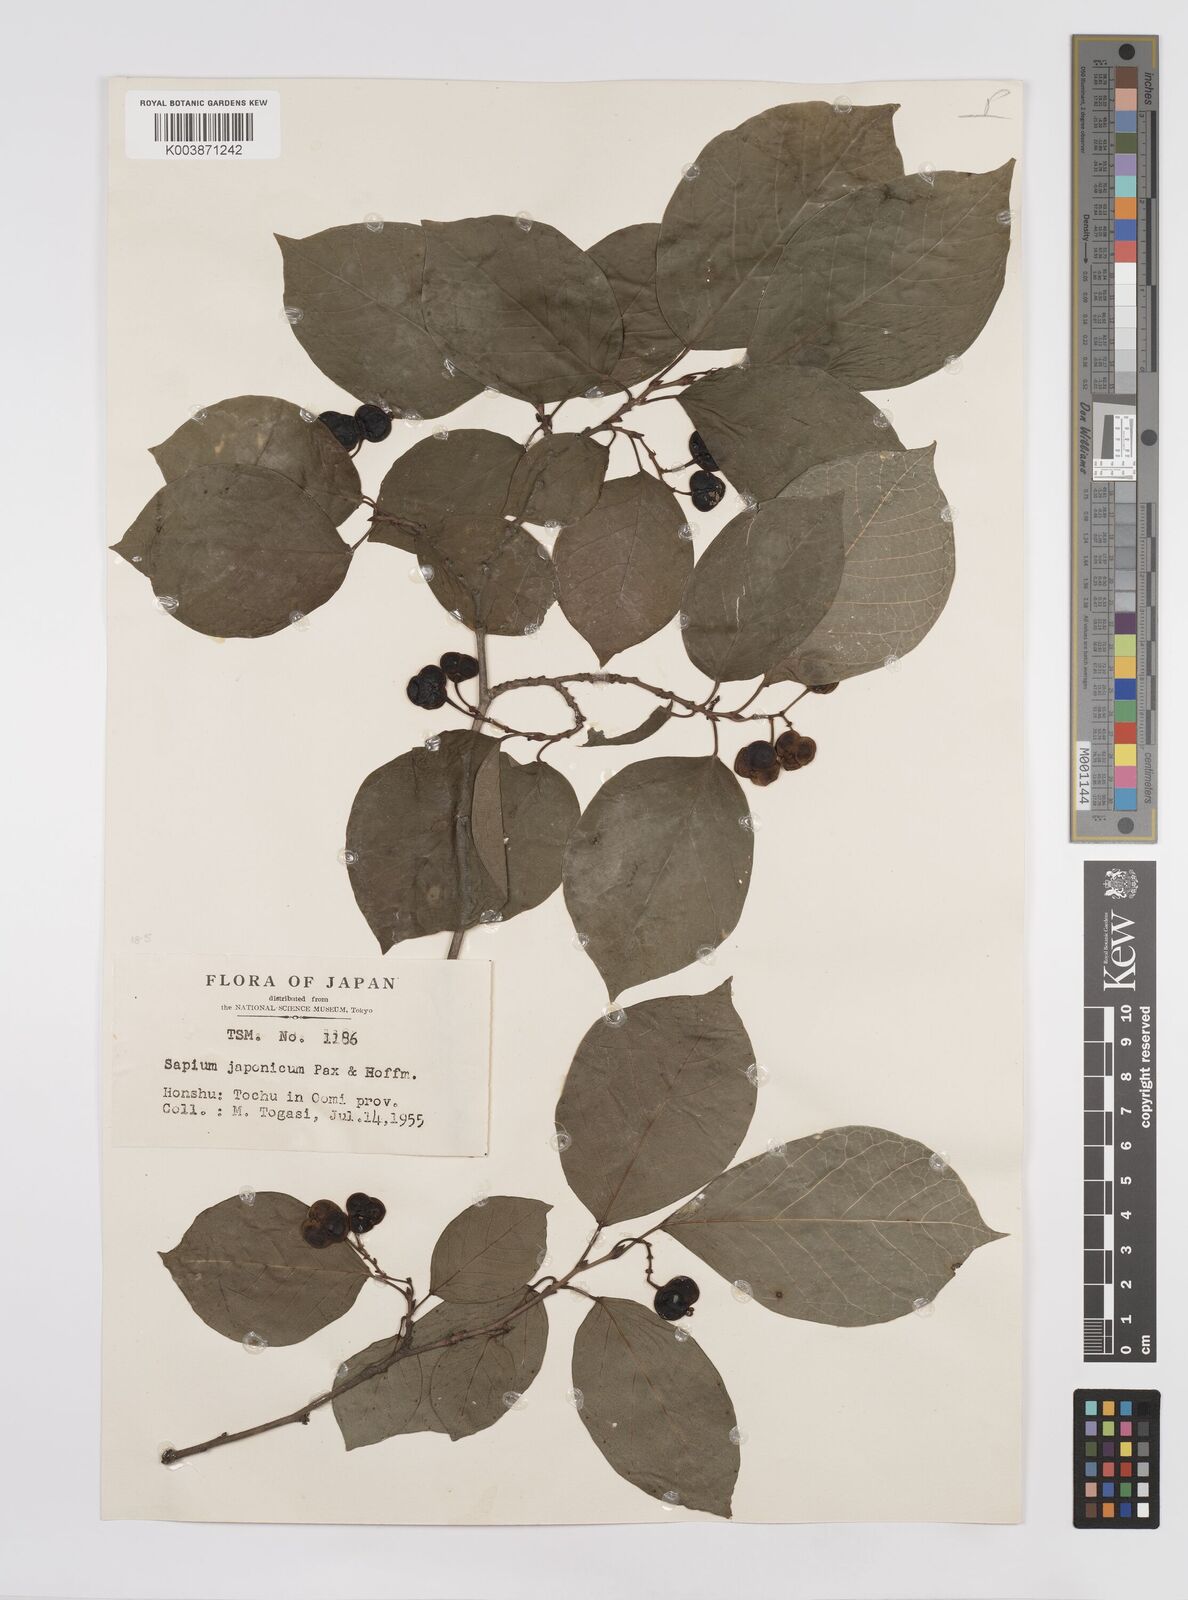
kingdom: Plantae
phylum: Tracheophyta
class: Magnoliopsida
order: Malpighiales
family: Euphorbiaceae
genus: Neoshirakia
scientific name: Neoshirakia japonica
